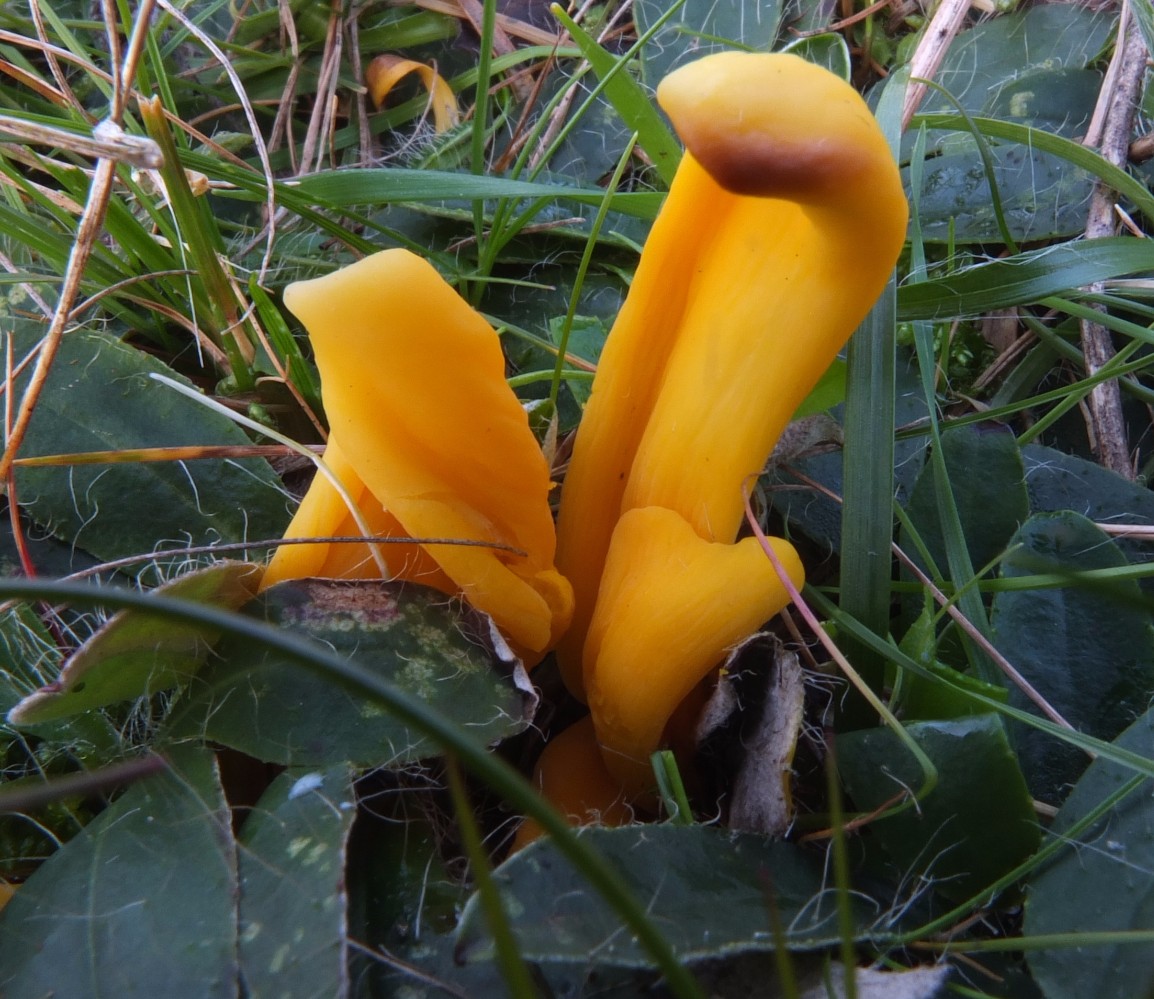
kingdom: Fungi
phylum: Basidiomycota
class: Agaricomycetes
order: Agaricales
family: Clavariaceae
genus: Clavulinopsis
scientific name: Clavulinopsis helvola
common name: orangegul køllesvamp
